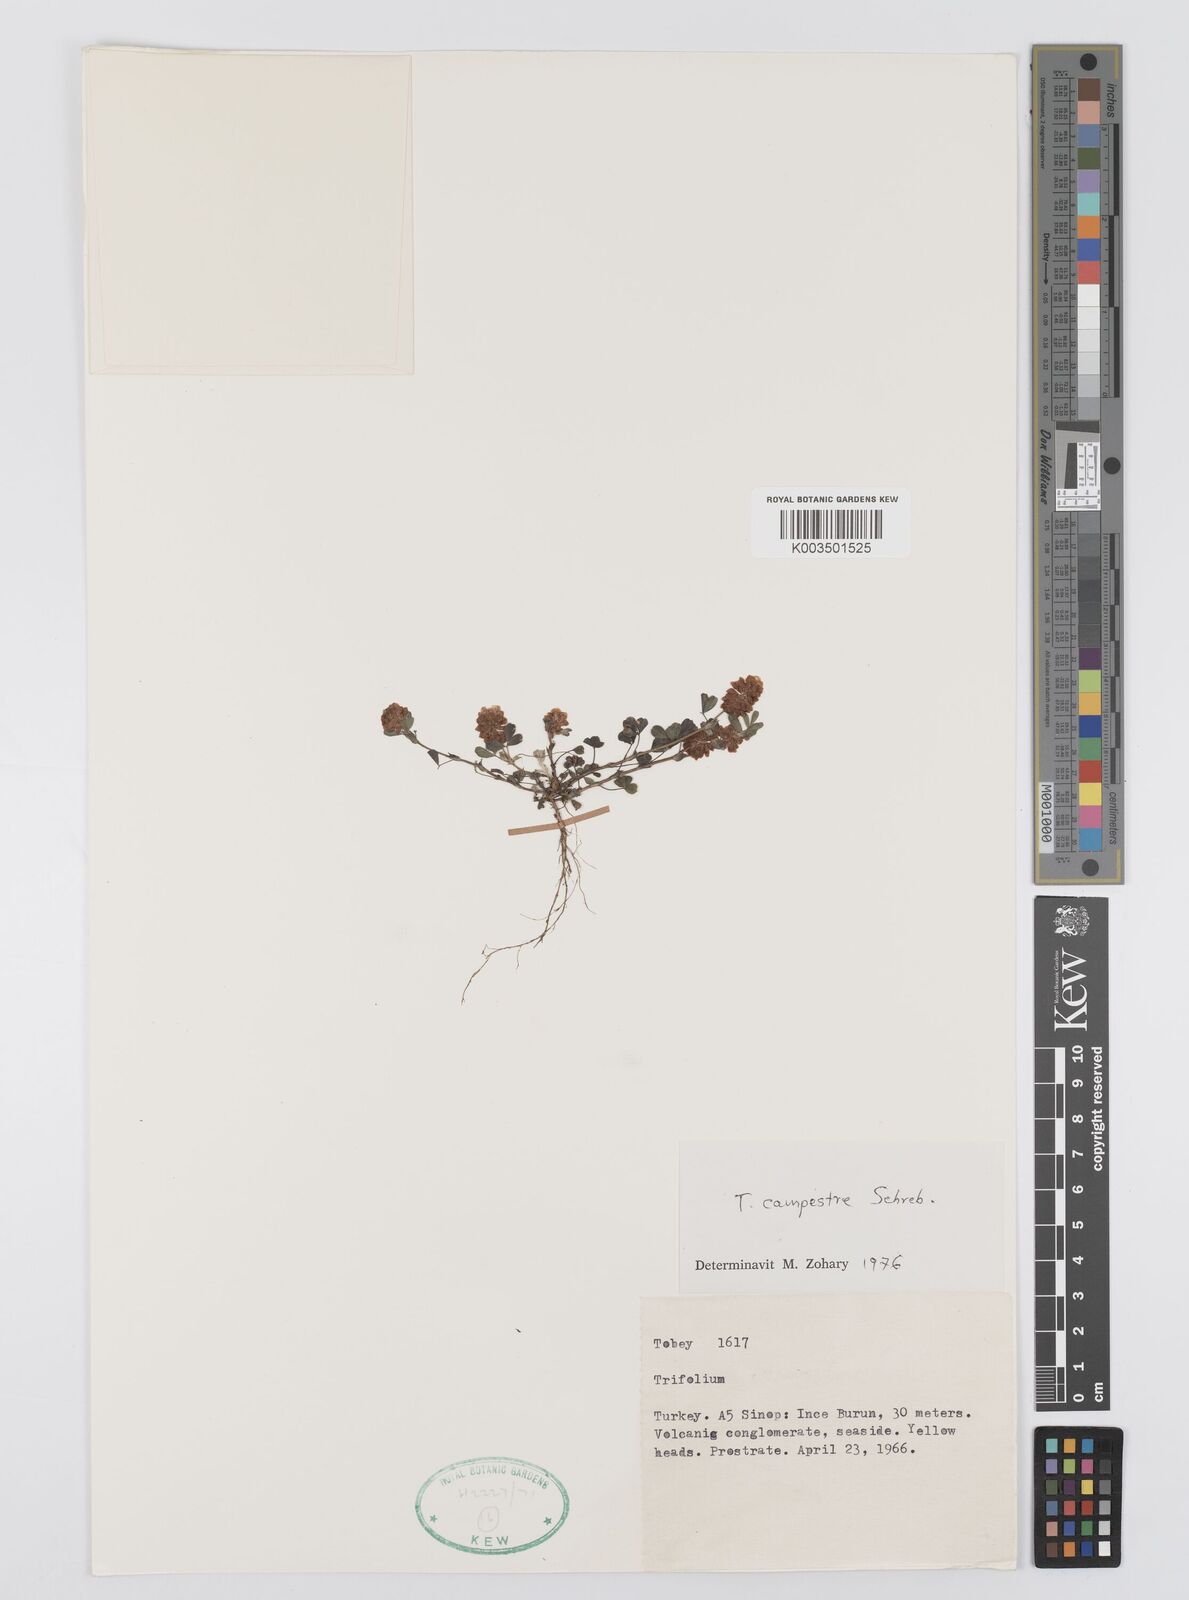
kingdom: Plantae
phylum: Tracheophyta
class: Magnoliopsida
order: Fabales
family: Fabaceae
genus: Trifolium
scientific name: Trifolium campestre
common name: Field clover
